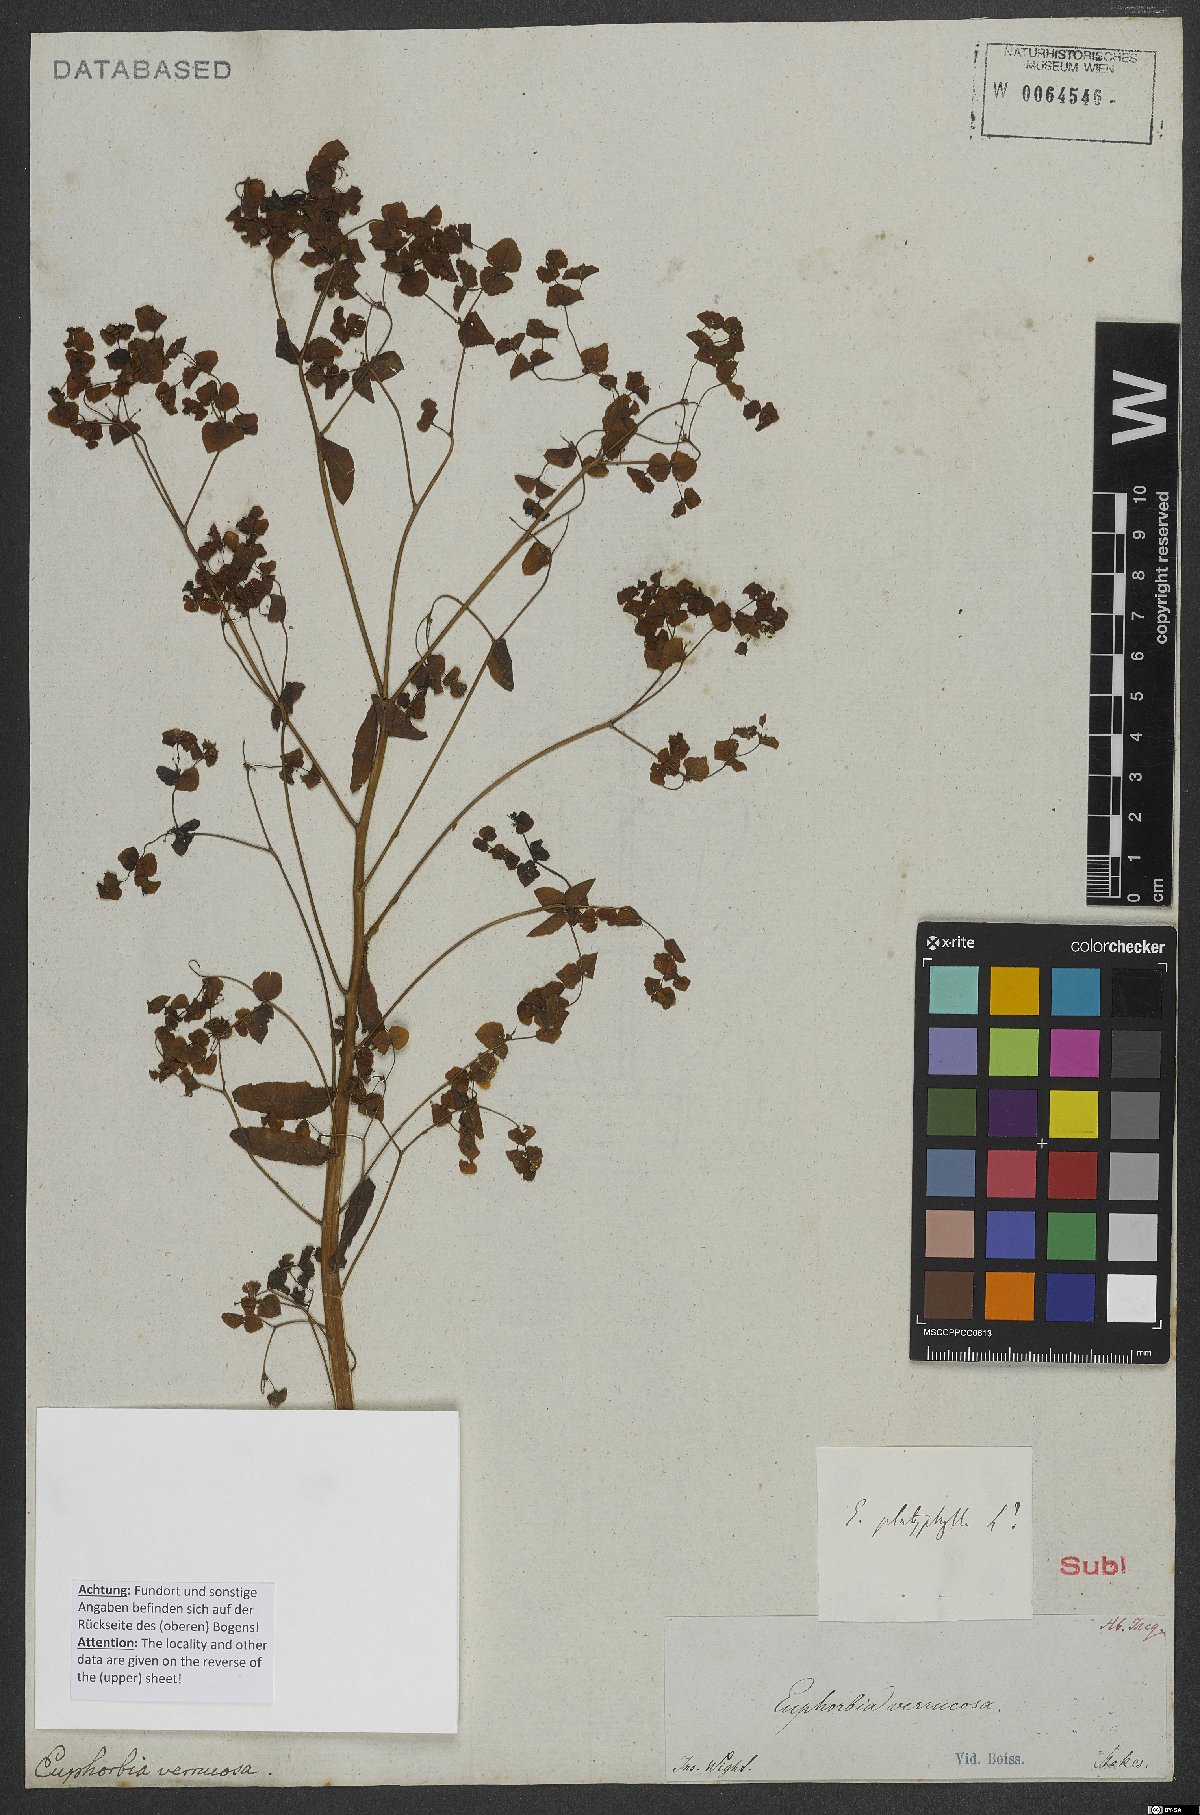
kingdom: Plantae
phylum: Tracheophyta
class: Magnoliopsida
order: Malpighiales
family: Euphorbiaceae
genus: Euphorbia
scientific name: Euphorbia platyphyllos
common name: Broad-leaved spurge
